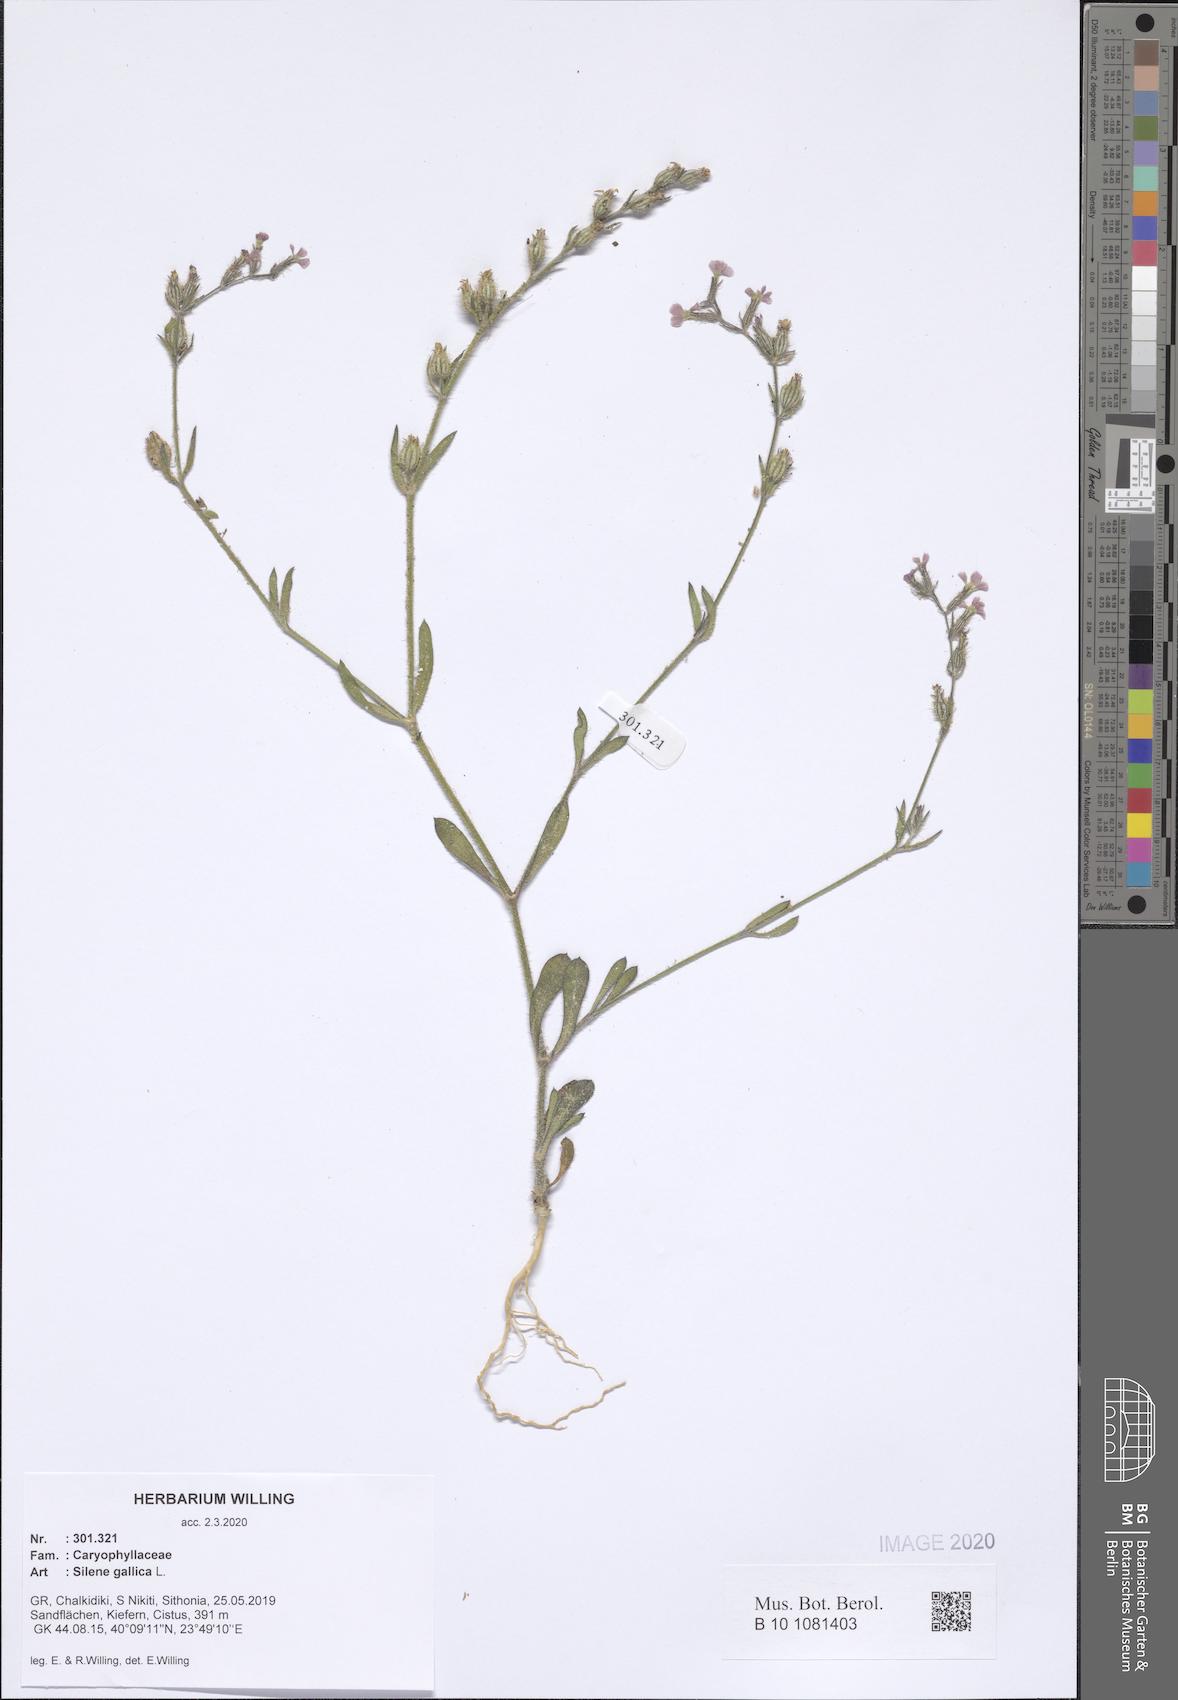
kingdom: Plantae
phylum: Tracheophyta
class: Magnoliopsida
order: Caryophyllales
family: Caryophyllaceae
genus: Silene
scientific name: Silene gallica
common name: Small-flowered catchfly
